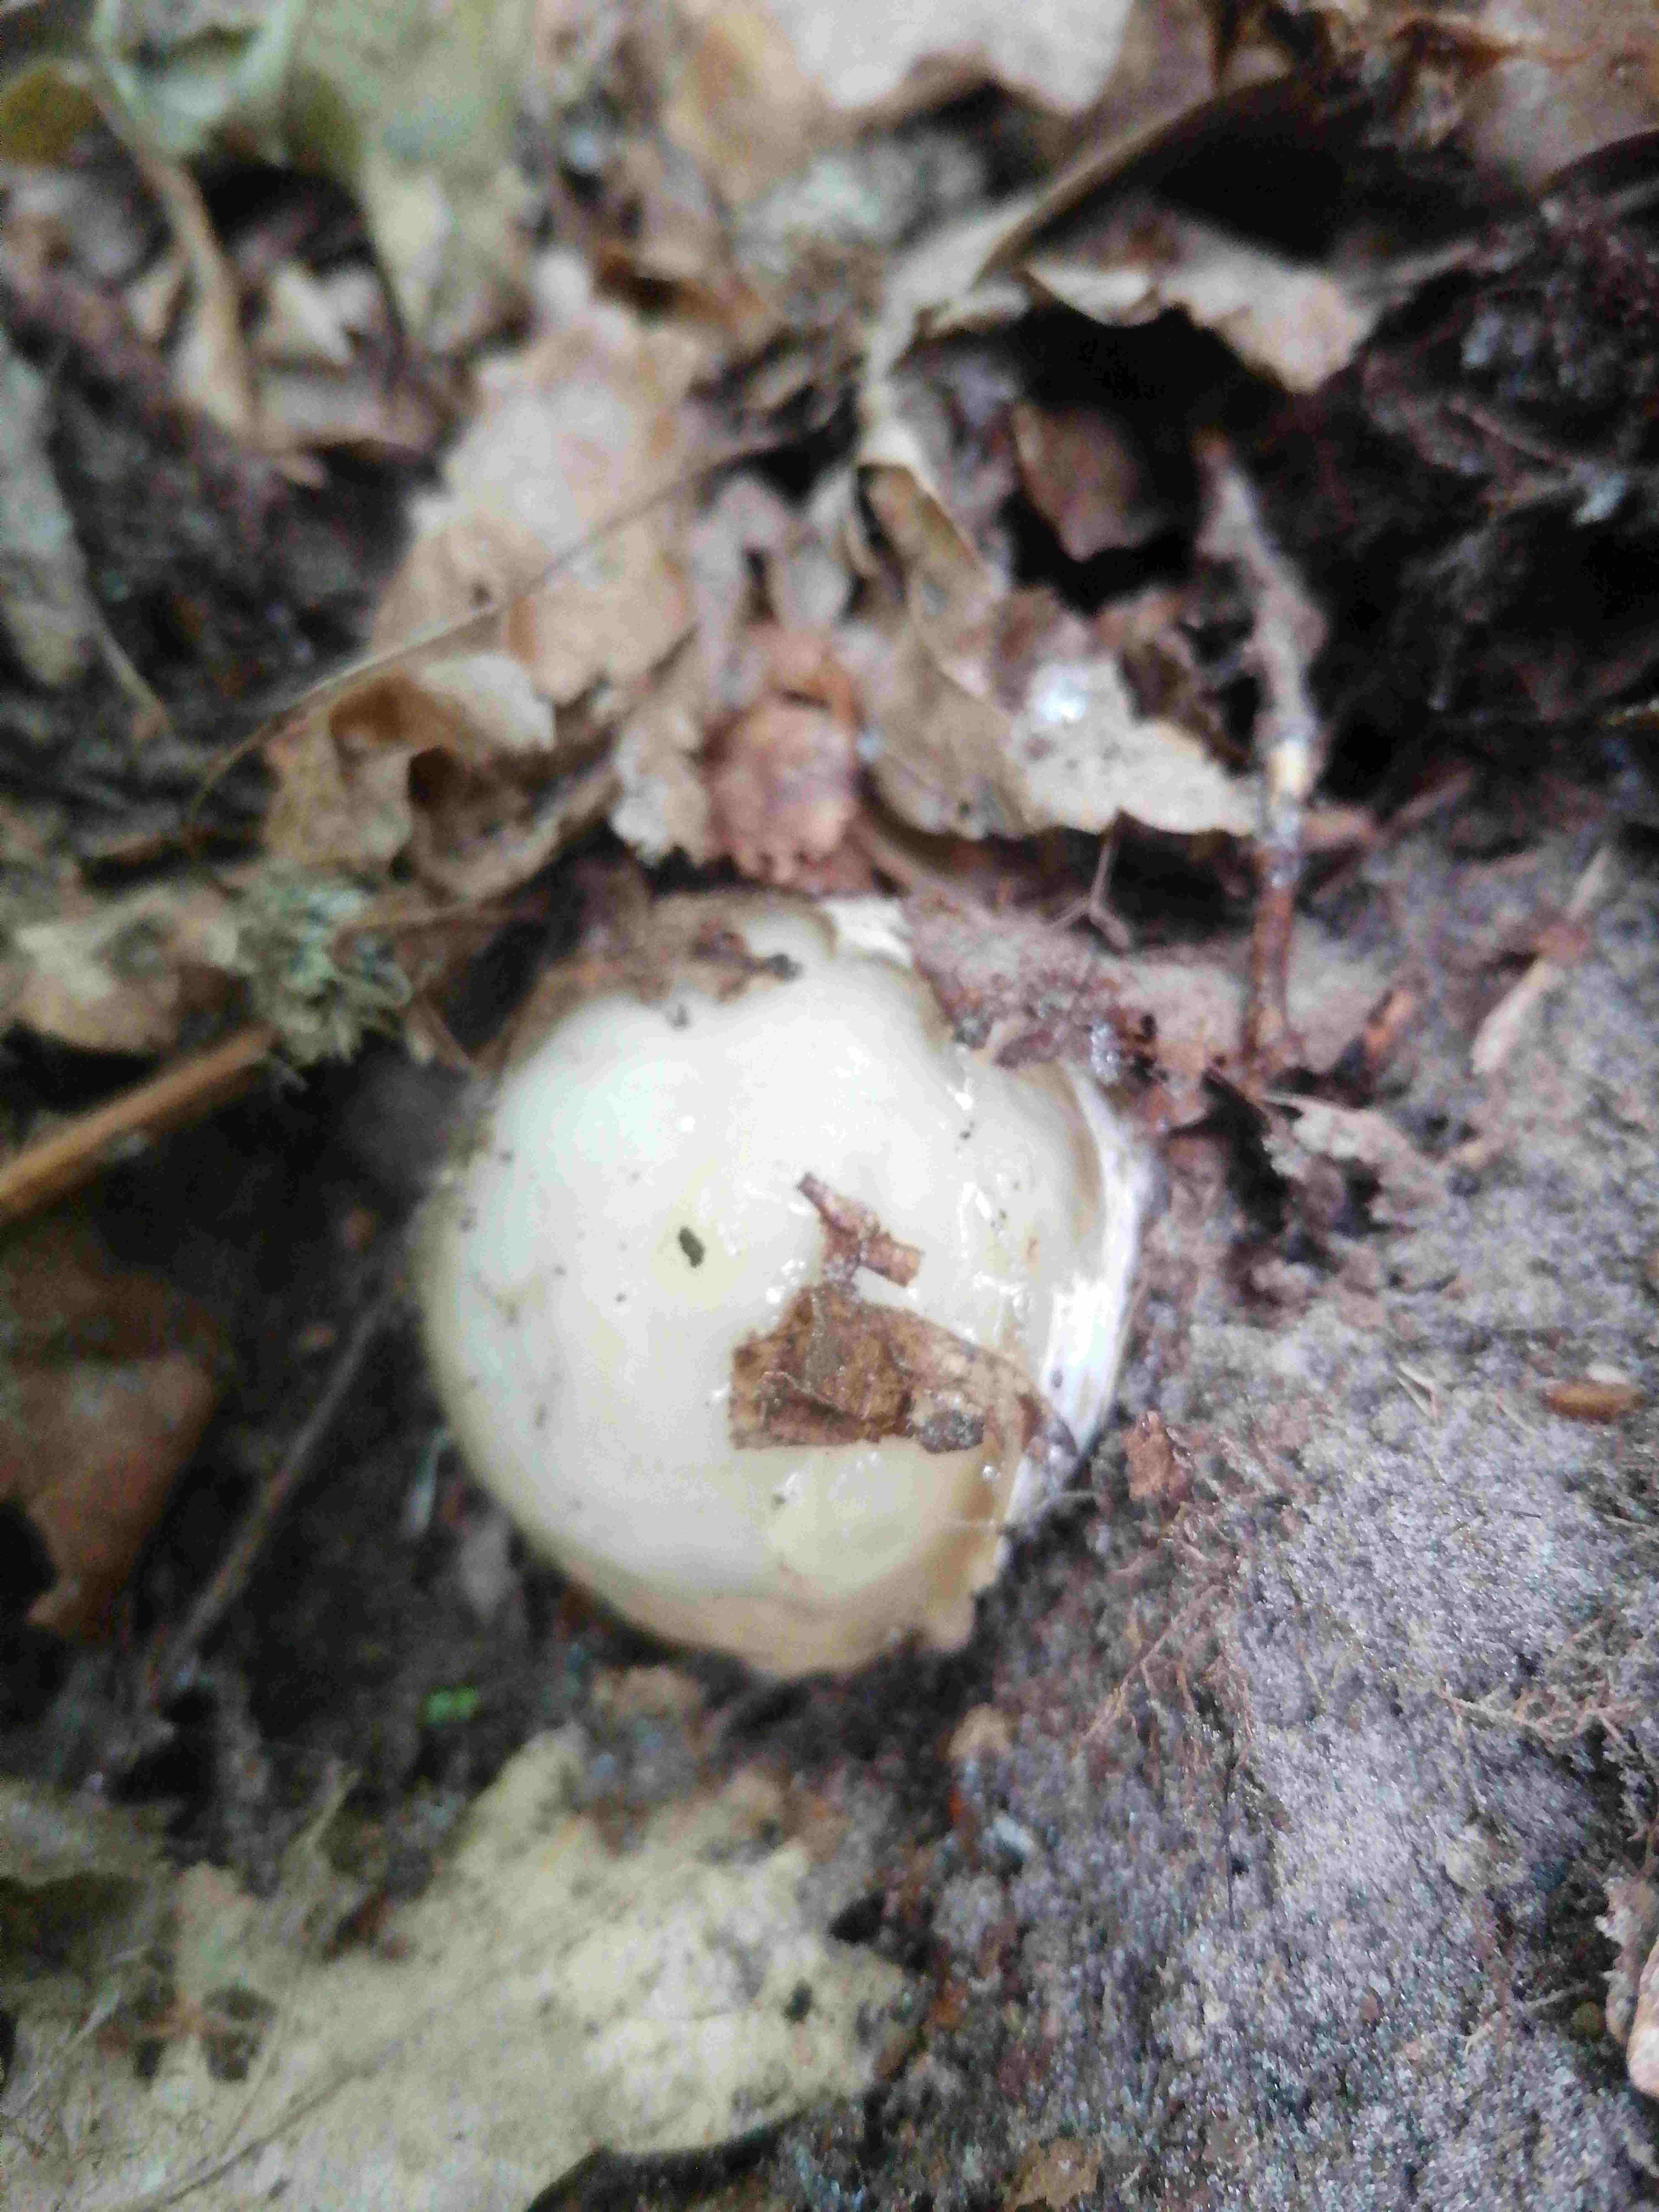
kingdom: Fungi
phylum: Basidiomycota
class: Agaricomycetes
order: Phallales
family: Phallaceae
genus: Phallus
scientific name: Phallus impudicus
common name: almindelig stinksvamp
